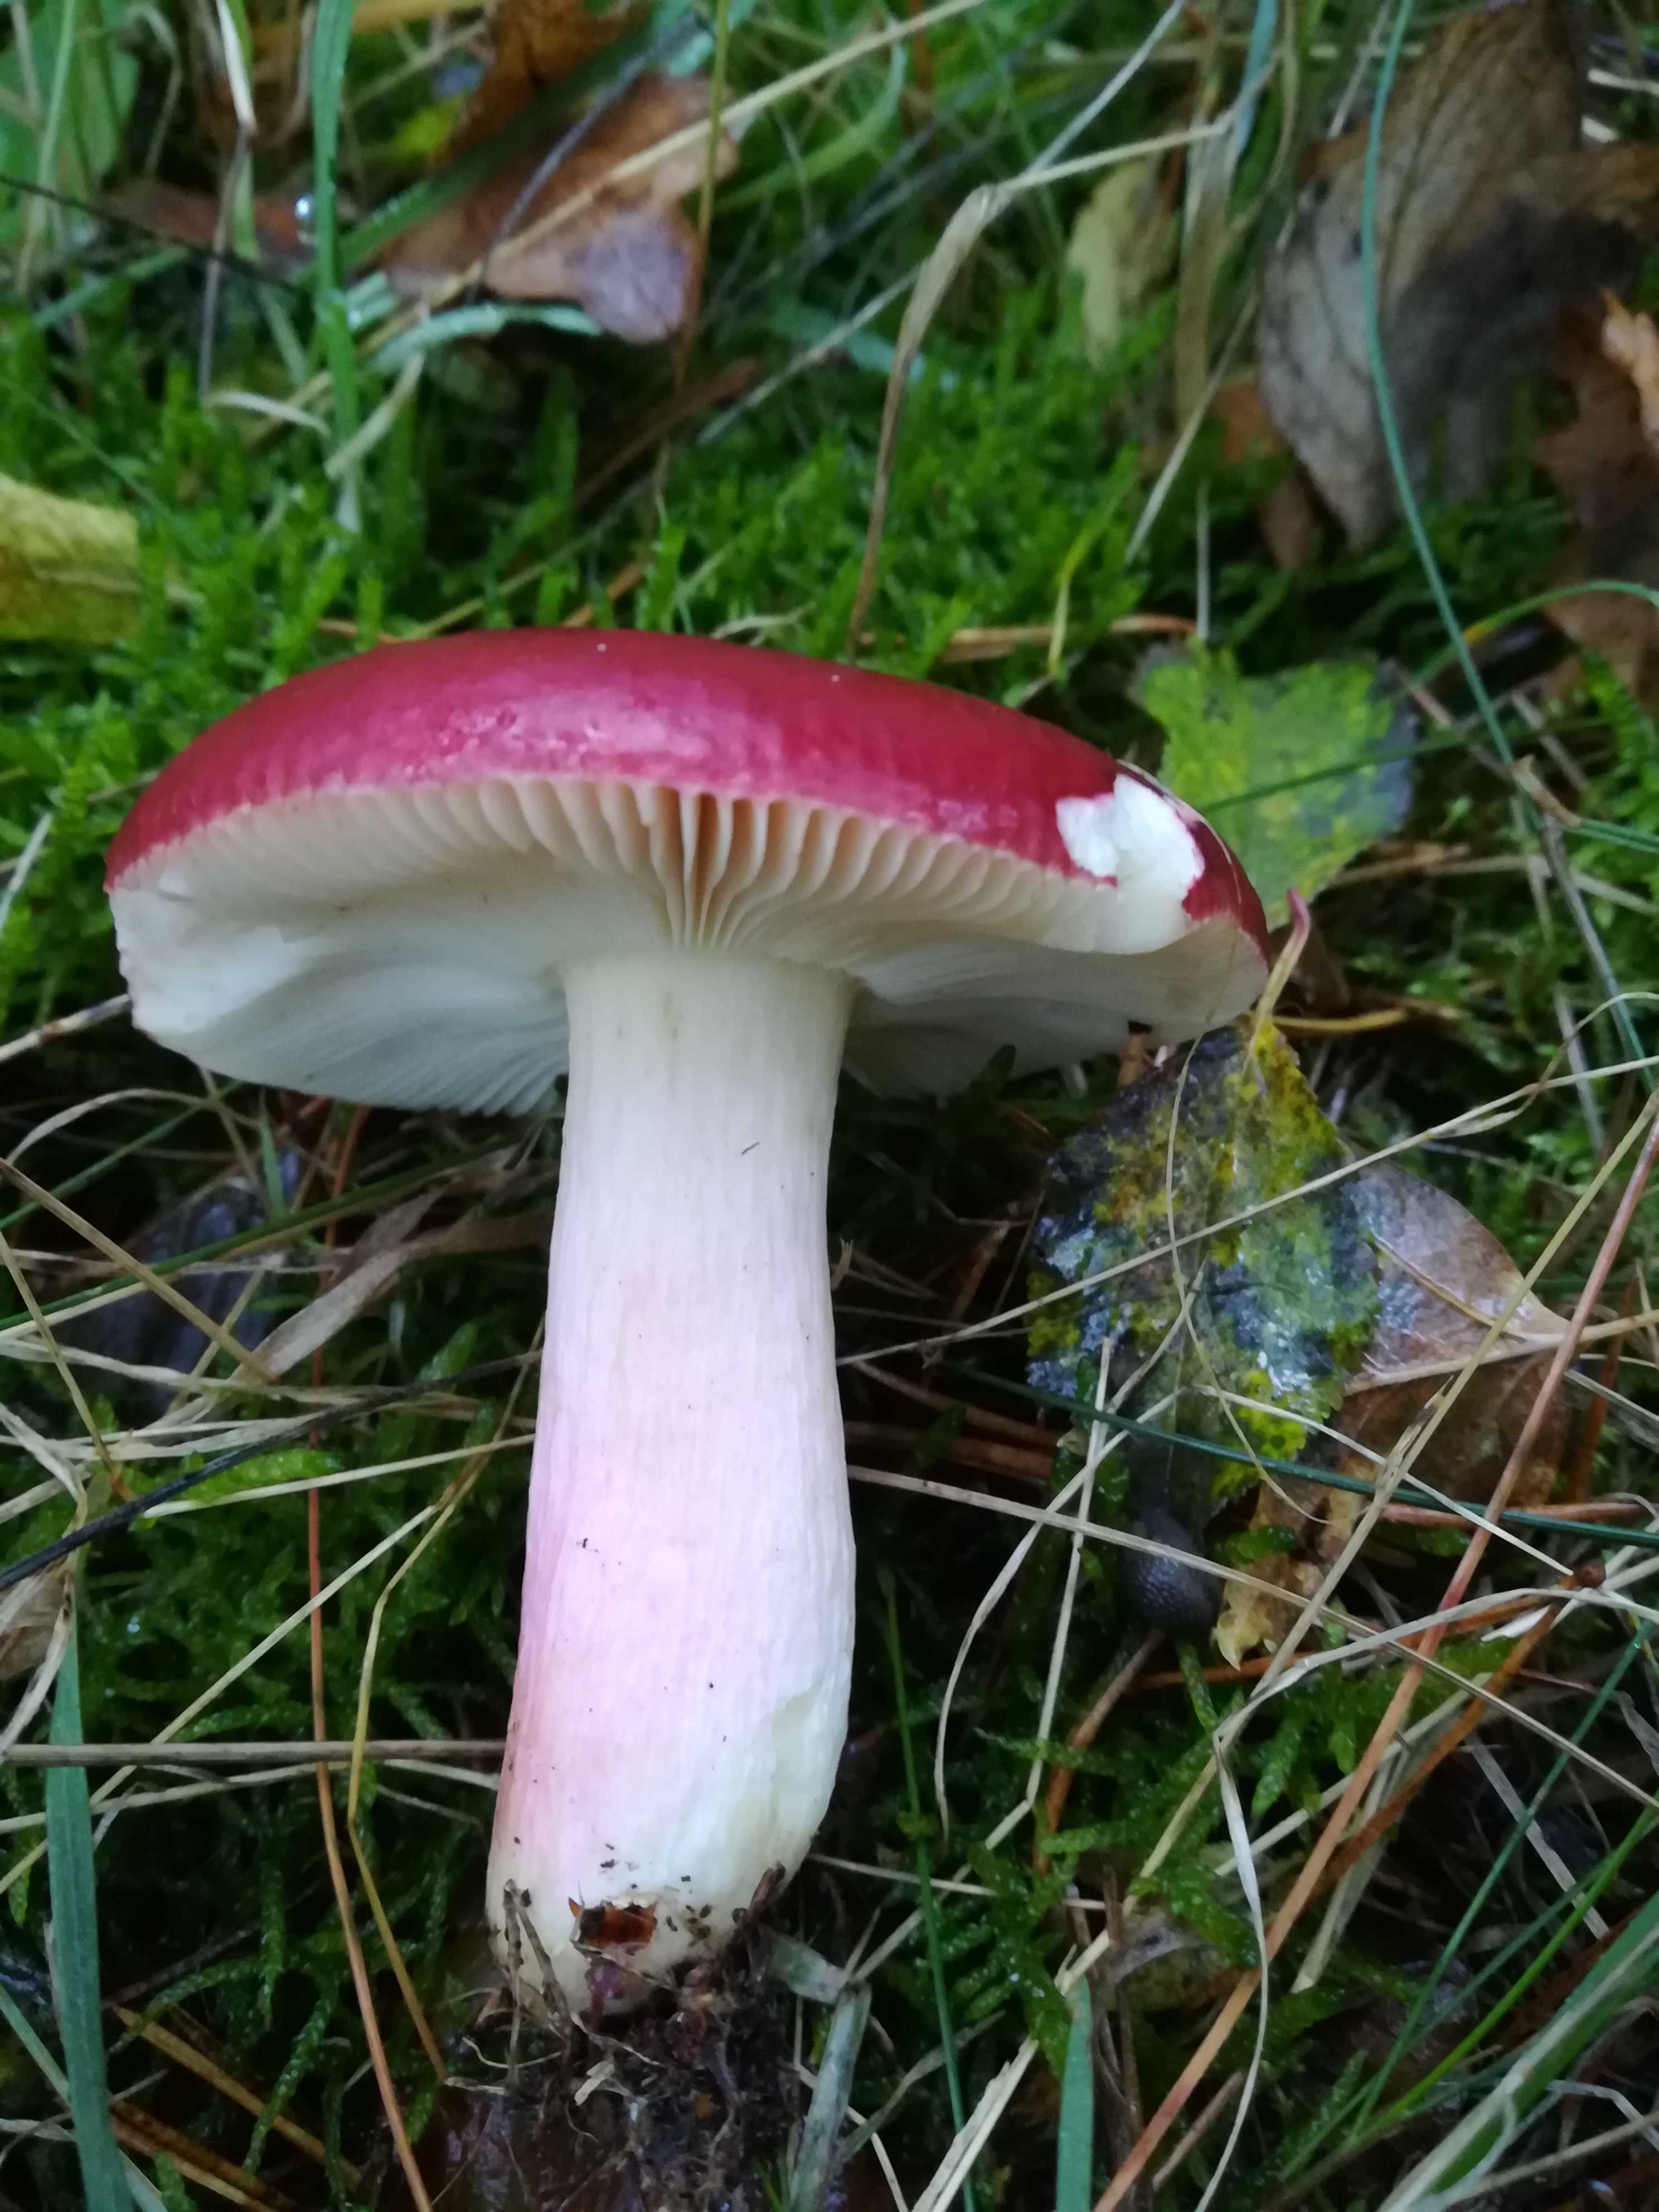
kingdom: Fungi
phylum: Basidiomycota
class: Agaricomycetes
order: Russulales
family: Russulaceae
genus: Russula
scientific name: Russula xerampelina
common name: hummer-skørhat
